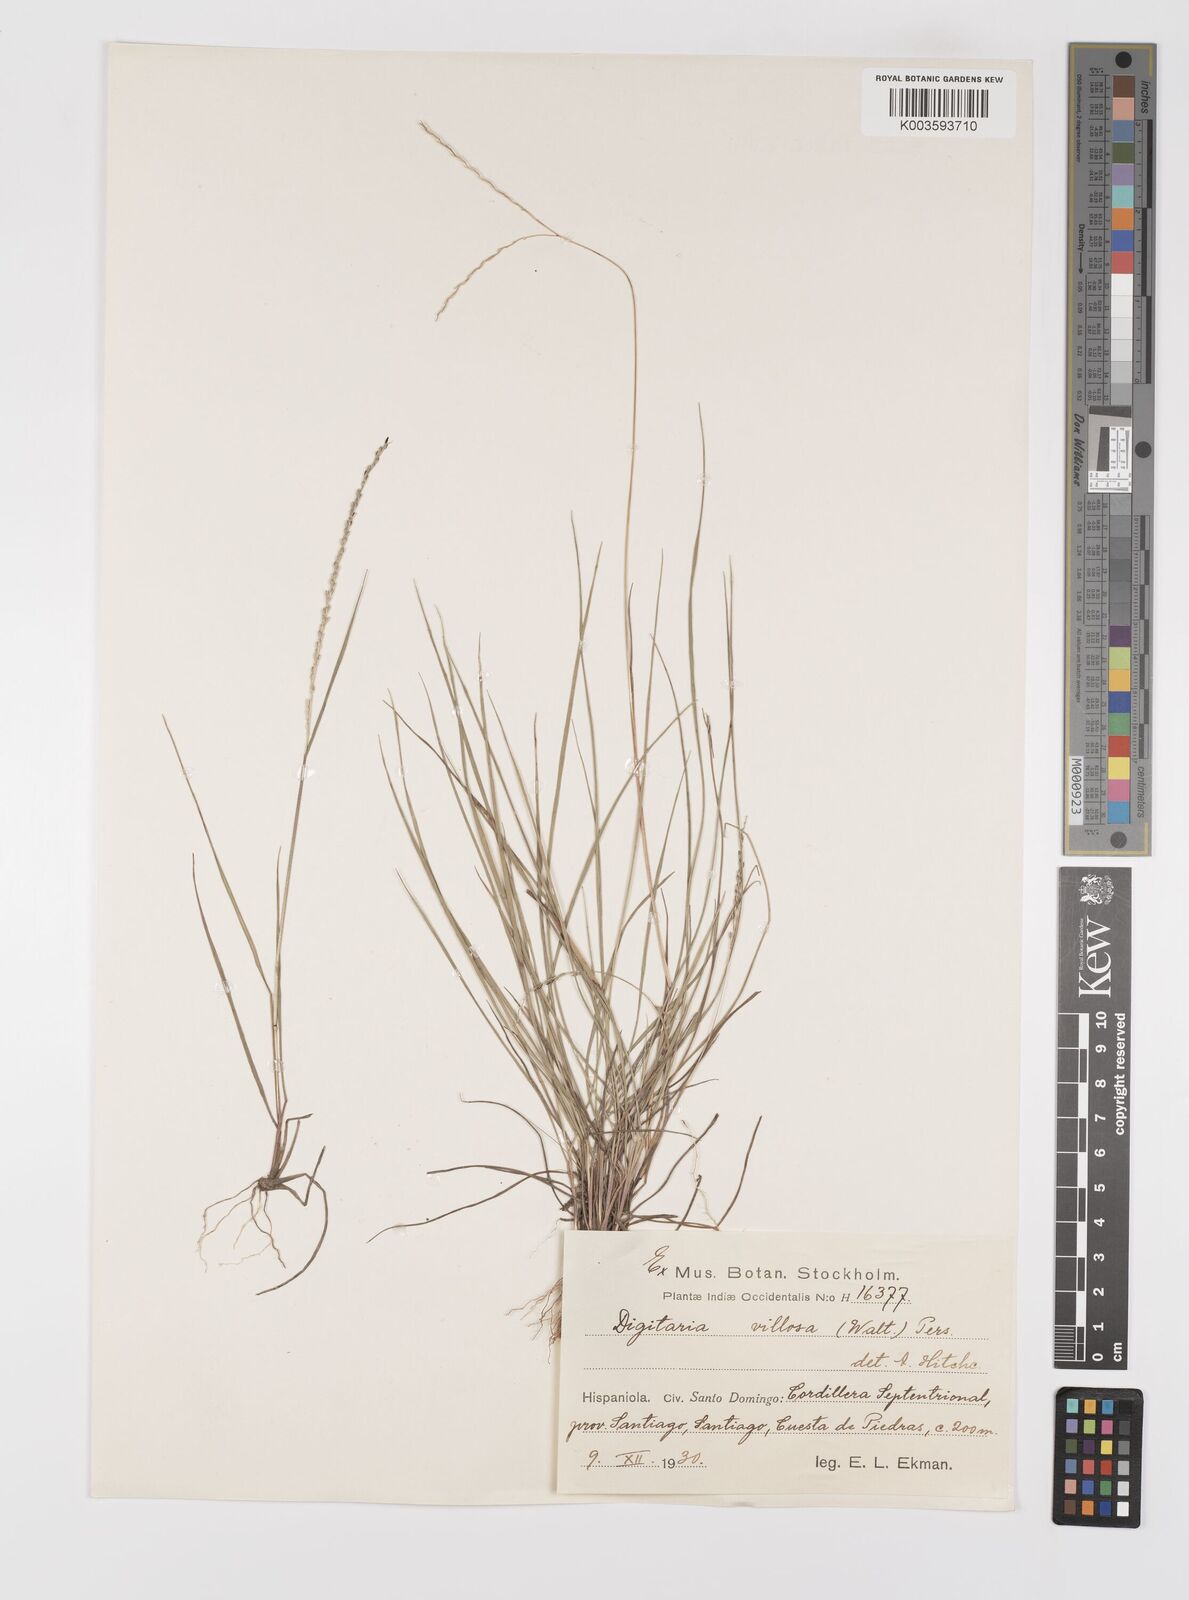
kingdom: Plantae
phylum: Tracheophyta
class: Liliopsida
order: Poales
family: Poaceae
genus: Digitaria
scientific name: Digitaria villosa
